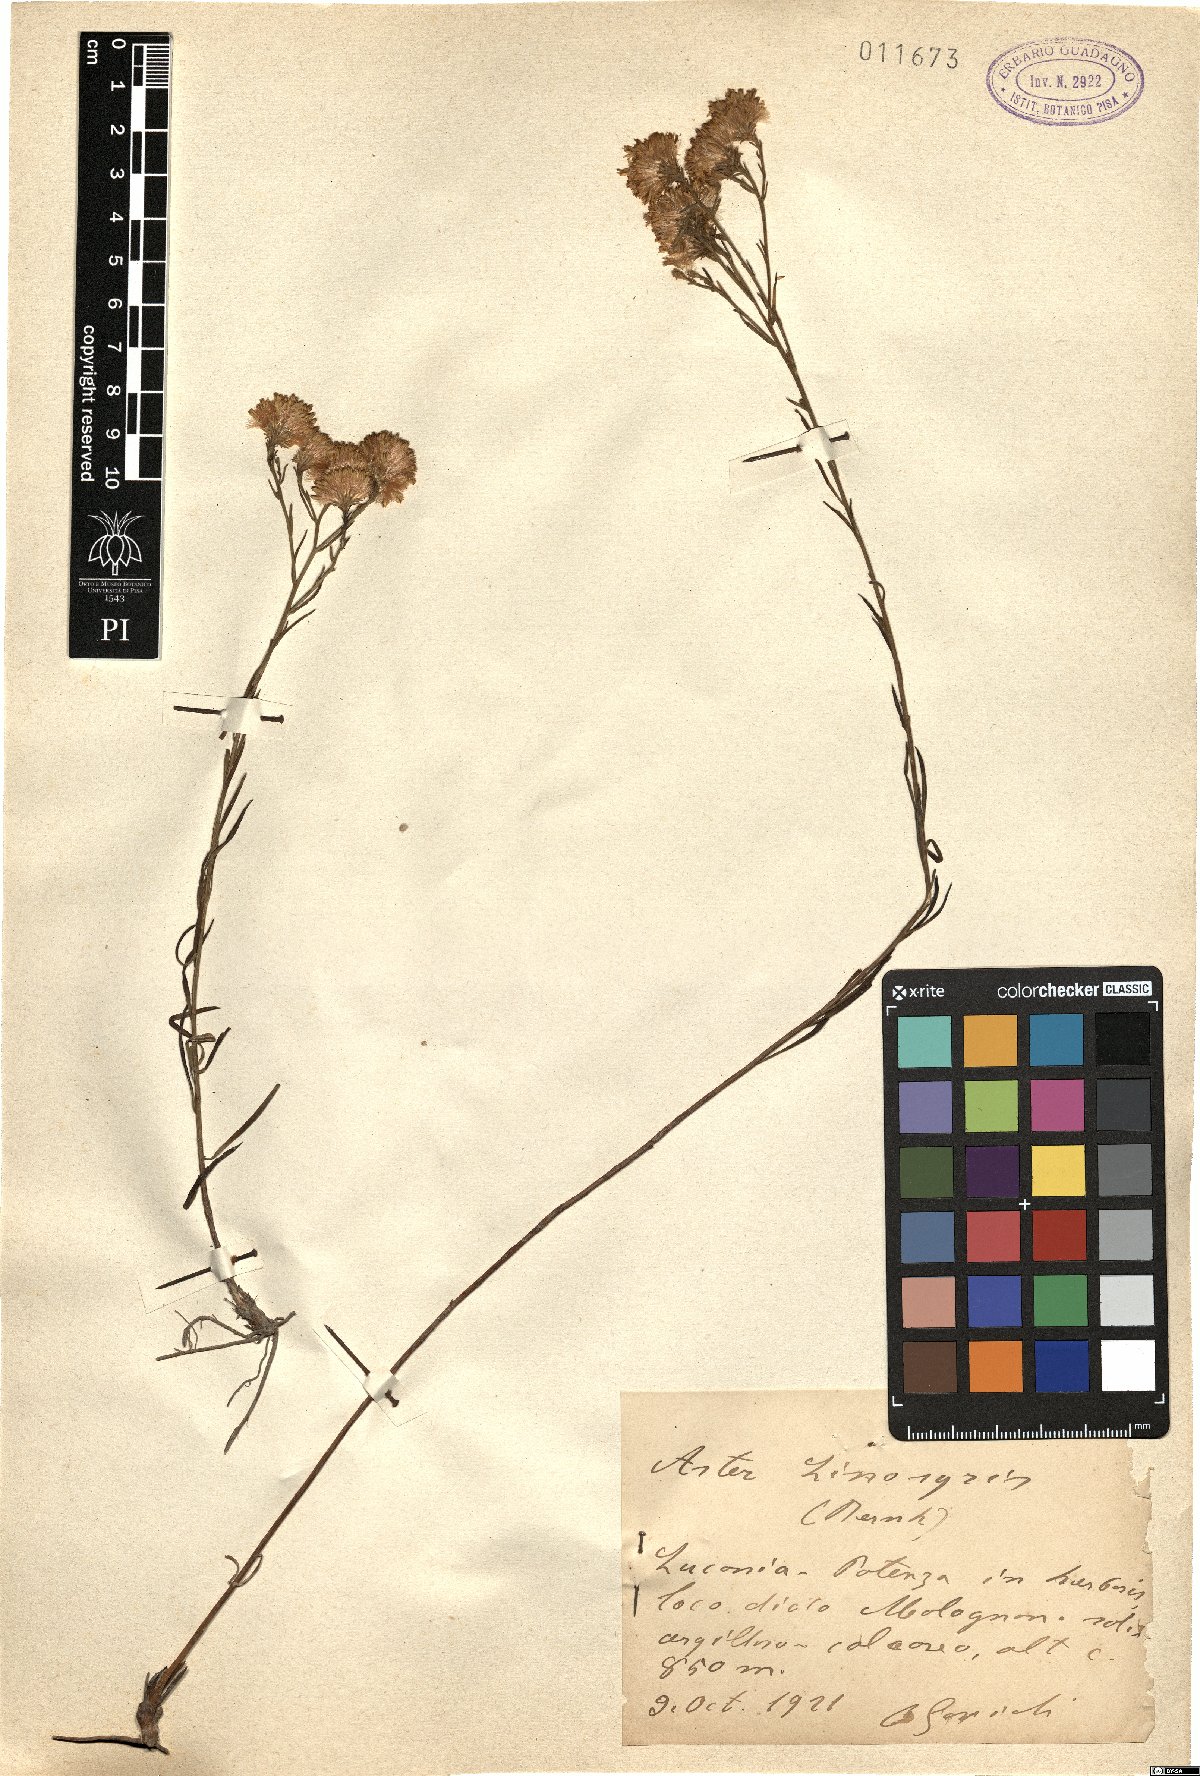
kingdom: Plantae
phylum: Tracheophyta
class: Magnoliopsida
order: Asterales
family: Asteraceae
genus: Galatella
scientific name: Galatella linosyris
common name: Goldilocks aster
